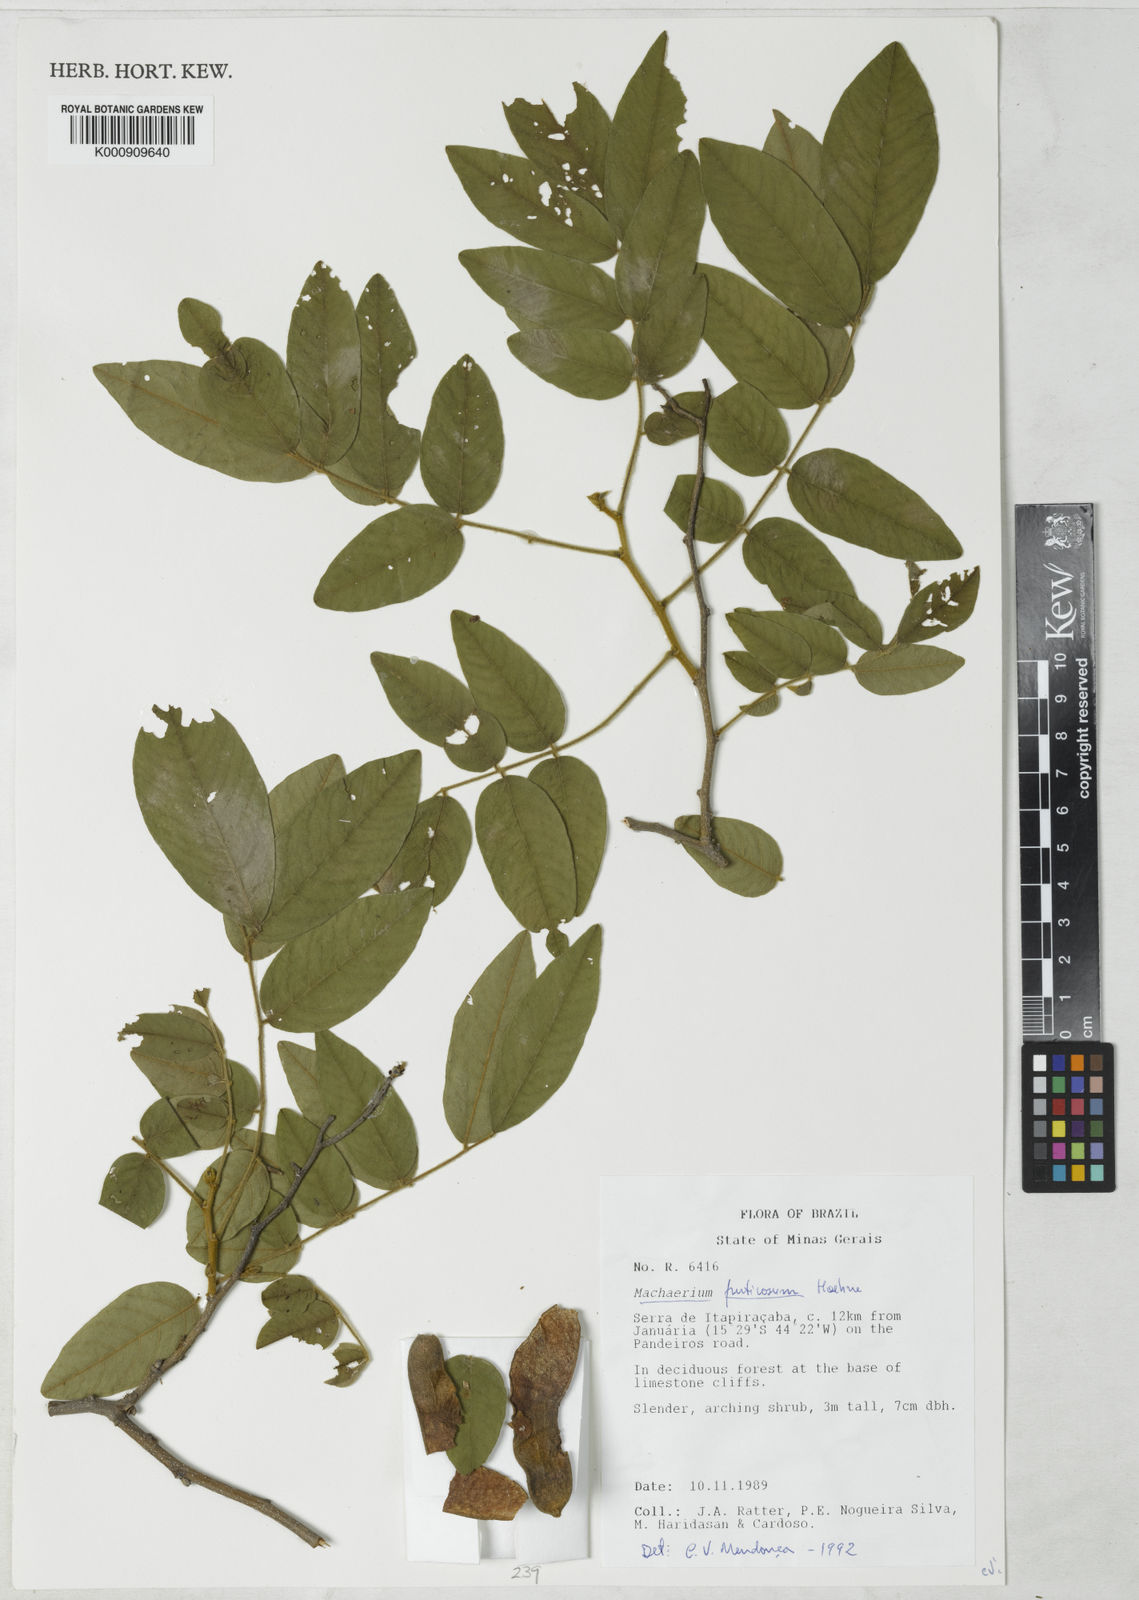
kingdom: Plantae
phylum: Tracheophyta
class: Magnoliopsida
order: Fabales
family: Fabaceae
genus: Machaerium
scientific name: Machaerium nigrum
